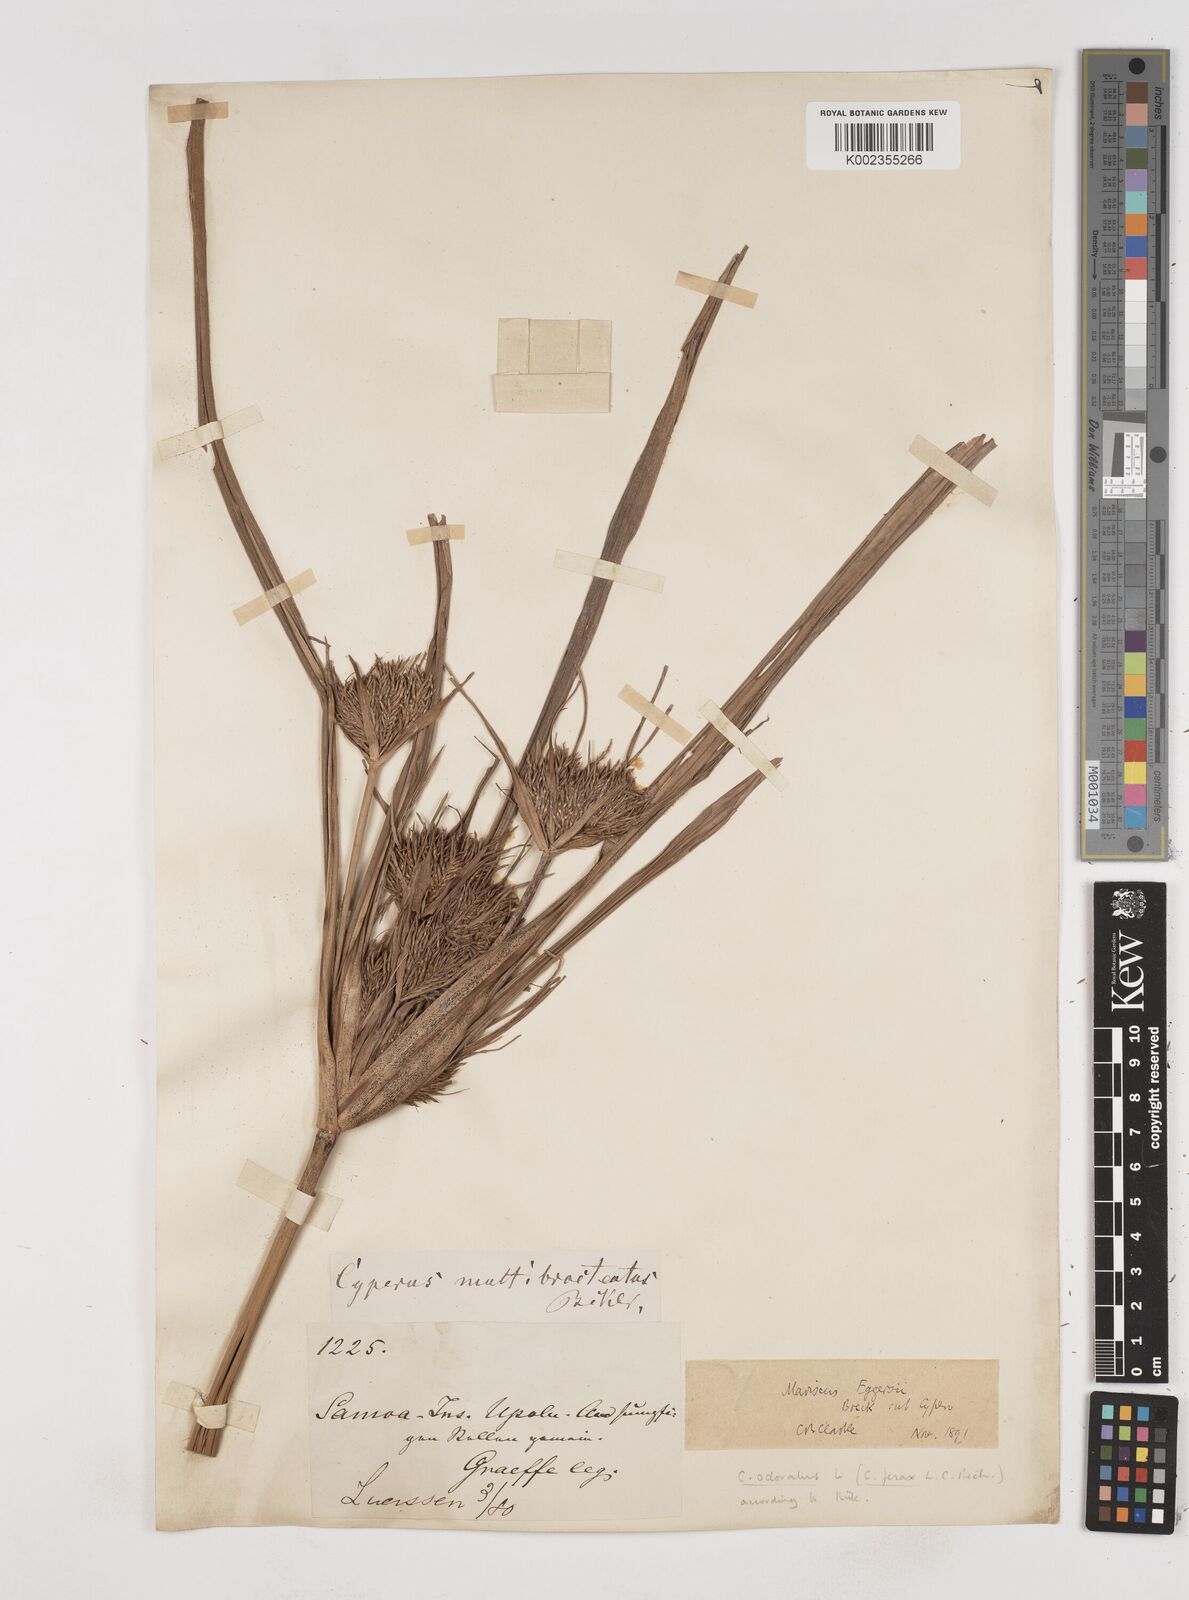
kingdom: Plantae
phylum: Tracheophyta
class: Liliopsida
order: Poales
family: Cyperaceae
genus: Cyperus
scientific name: Cyperus odoratus
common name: Fragrant flatsedge
